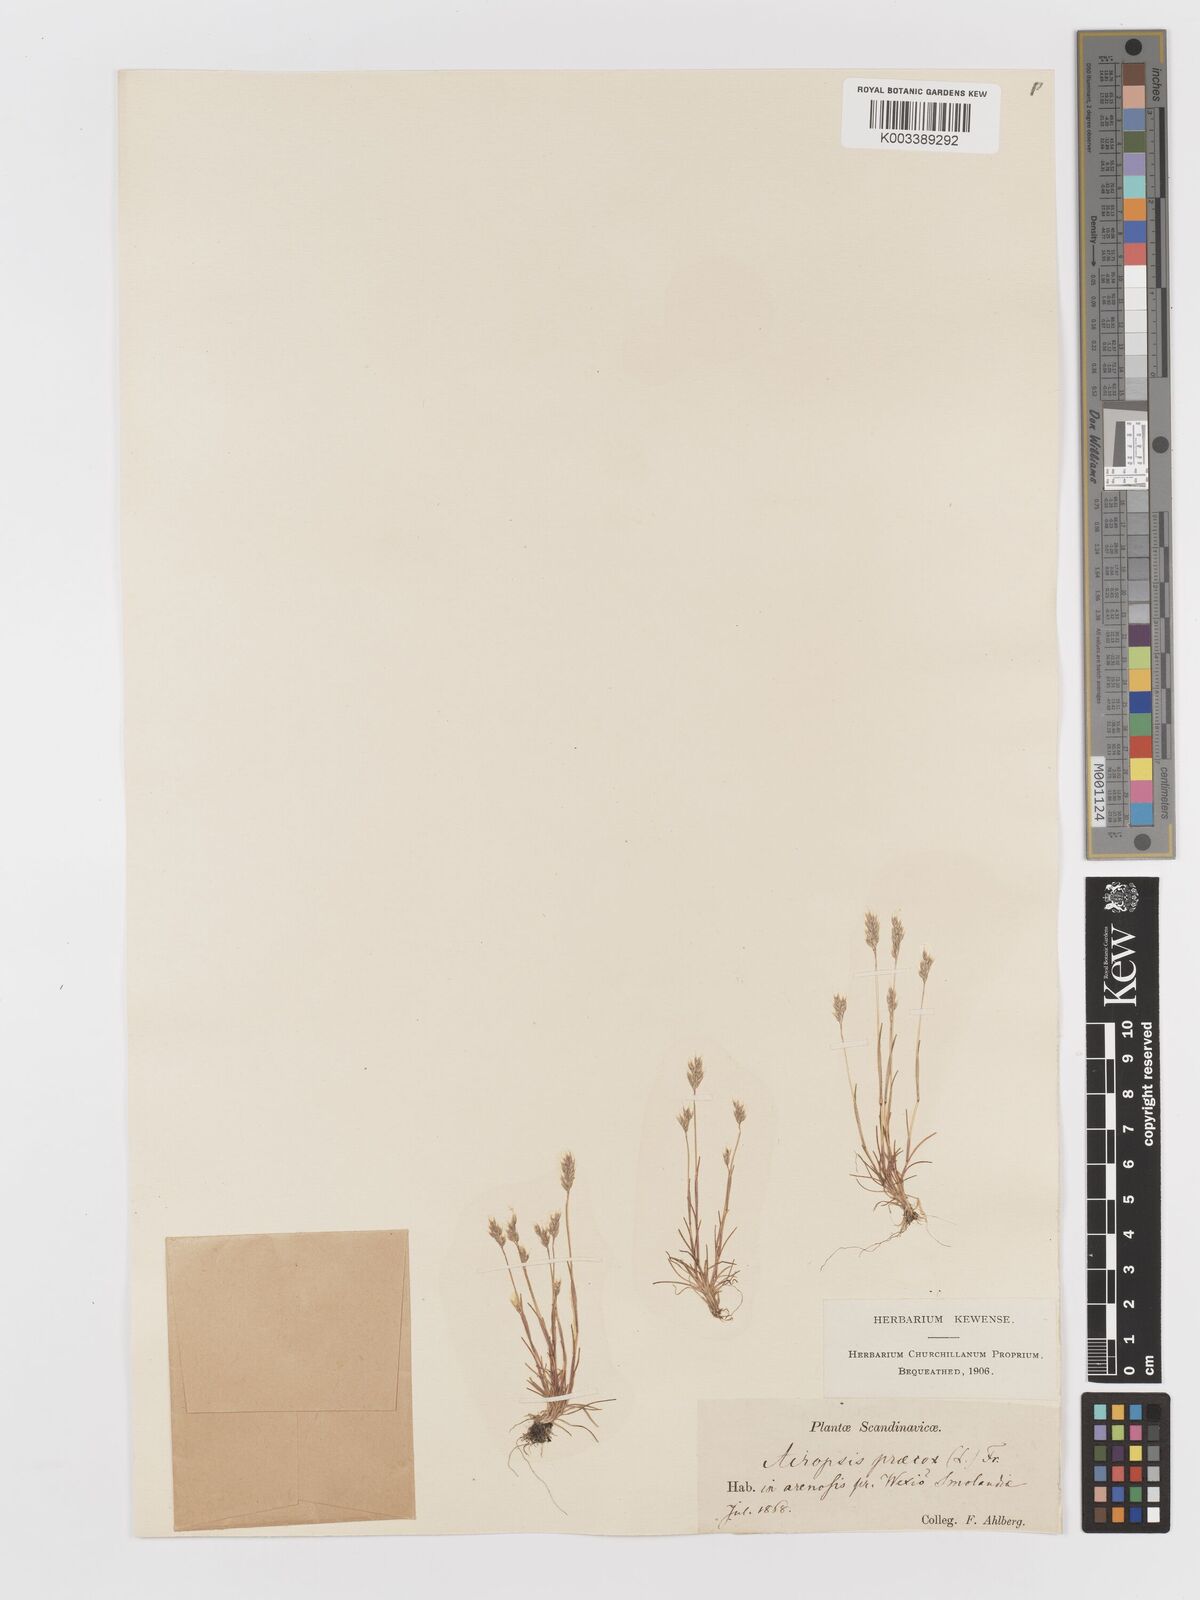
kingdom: Plantae
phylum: Tracheophyta
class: Liliopsida
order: Poales
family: Poaceae
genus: Aira
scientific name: Aira praecox
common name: Early hair-grass
